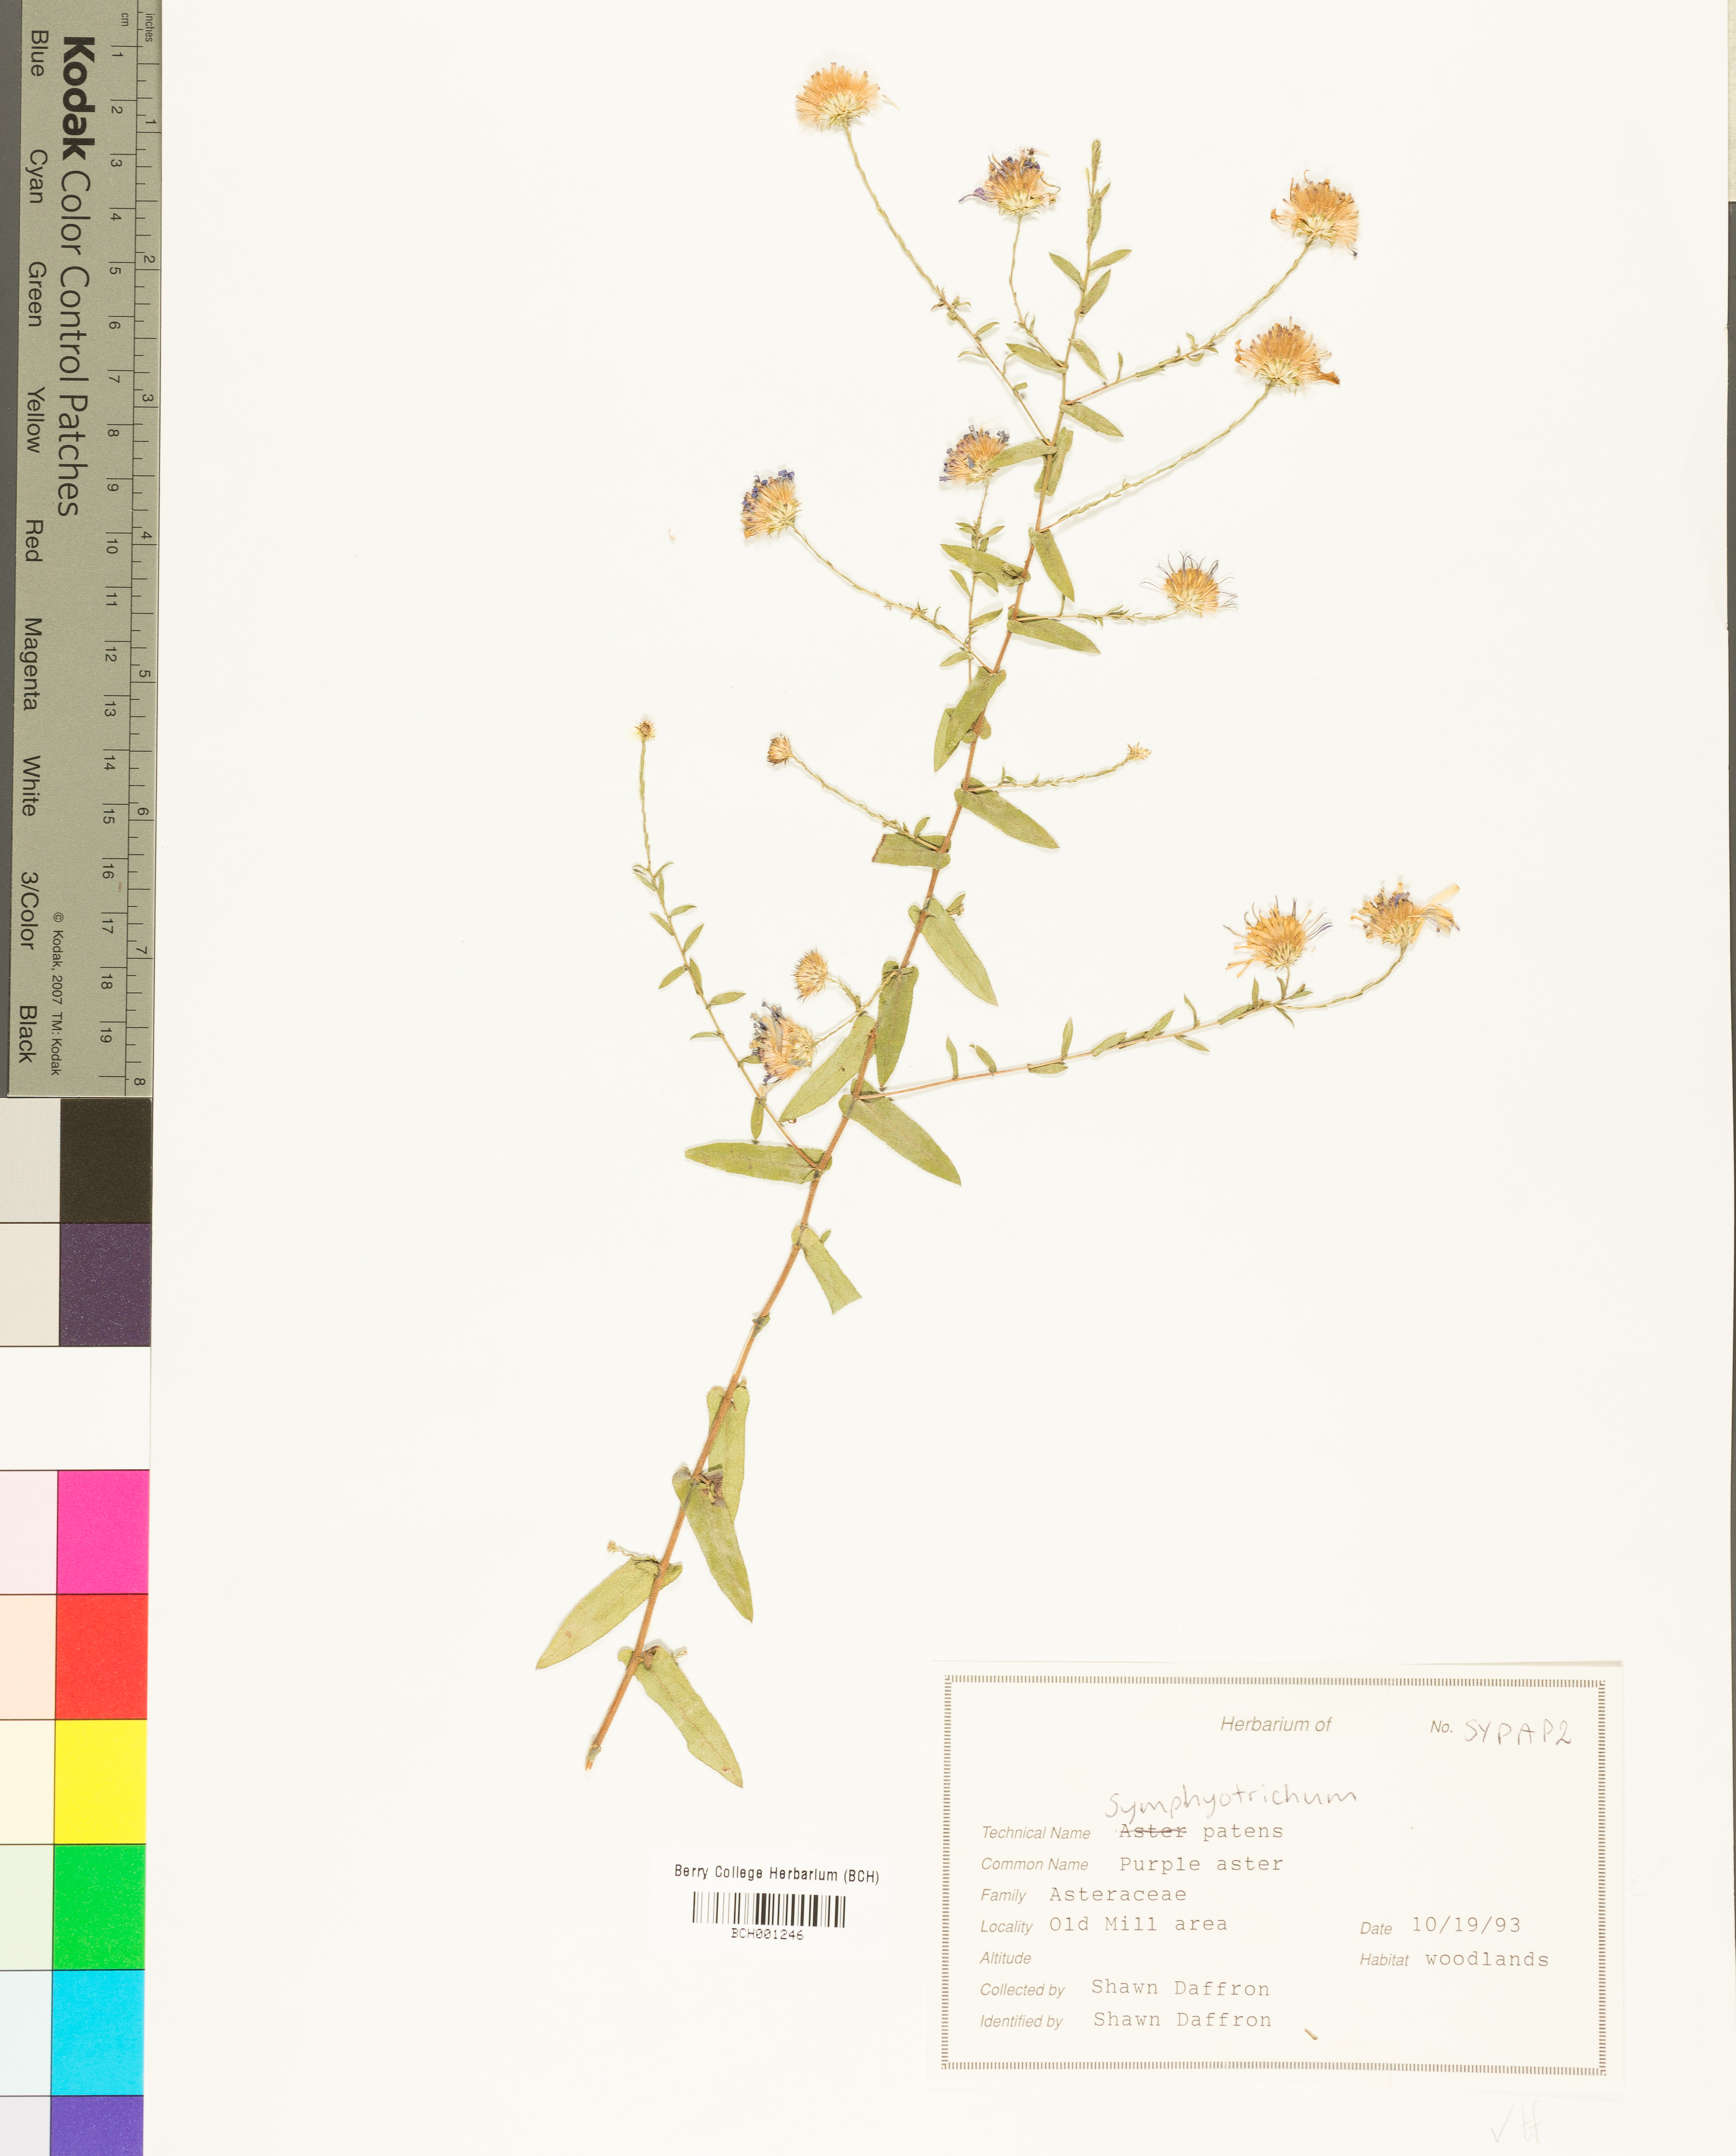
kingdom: Plantae
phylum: Tracheophyta
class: Magnoliopsida
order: Asterales
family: Asteraceae
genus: Symphyotrichum
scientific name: Symphyotrichum patens
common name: Late purple aster
